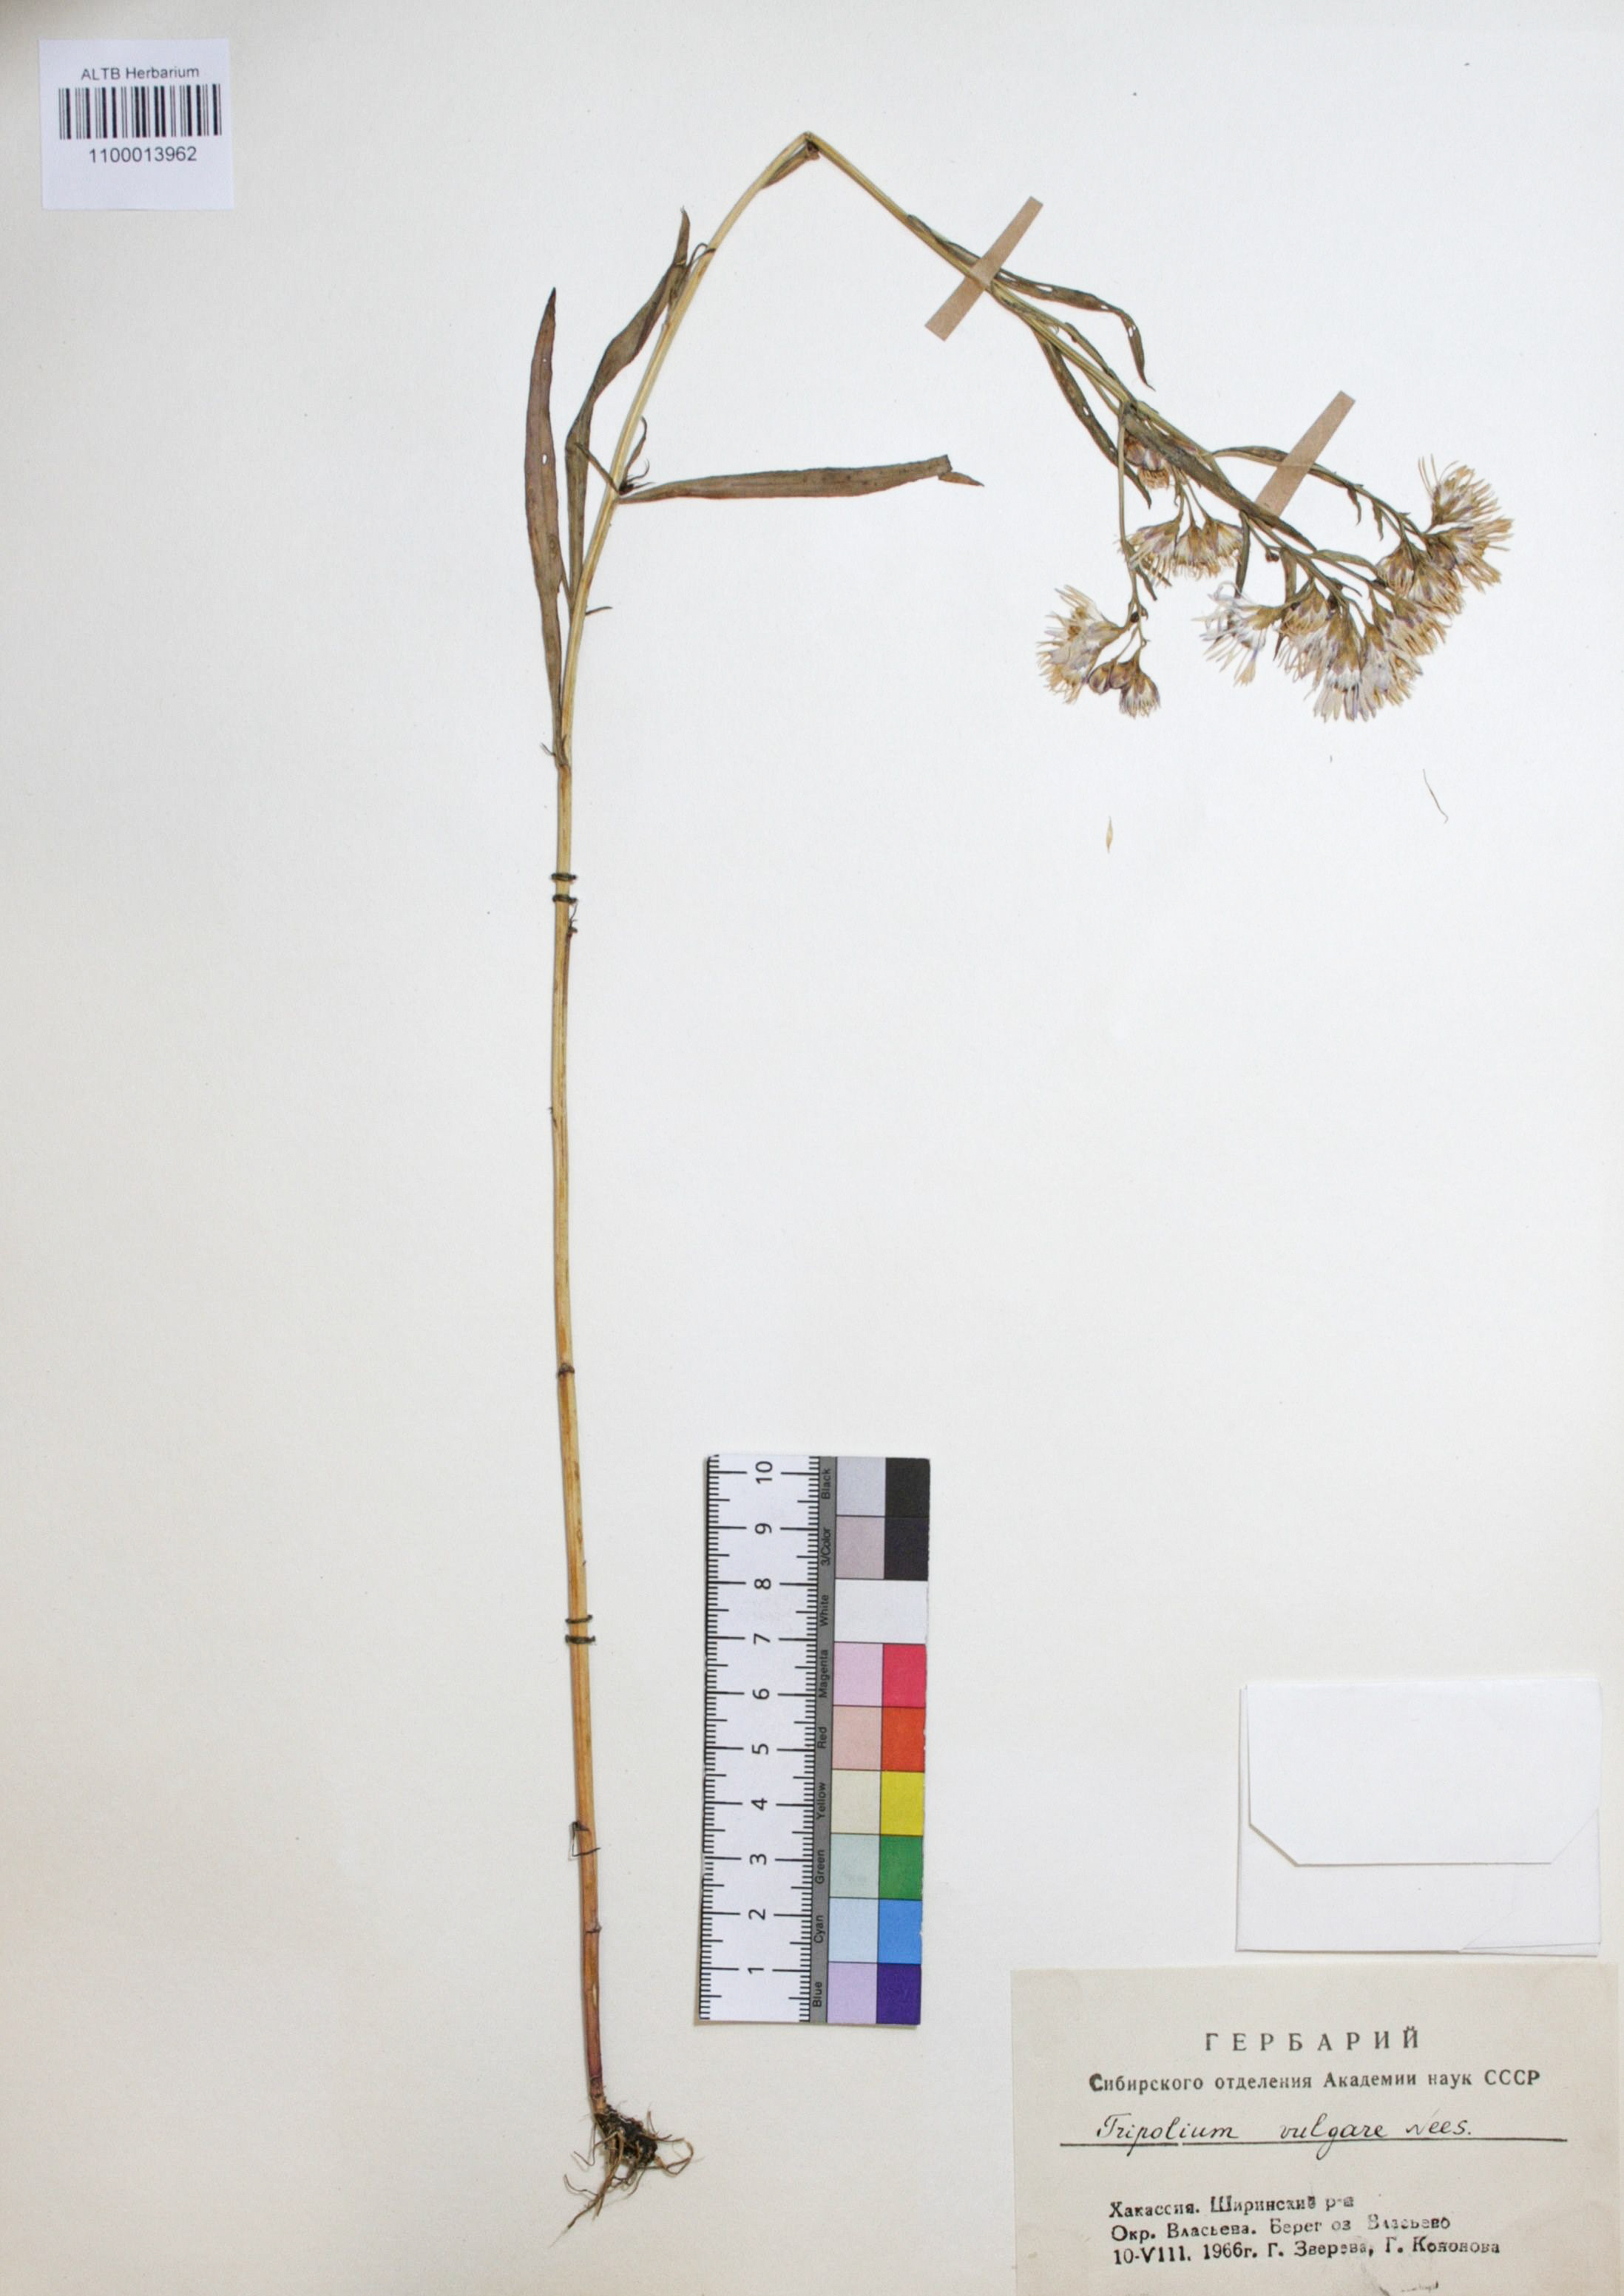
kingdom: Plantae
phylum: Tracheophyta
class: Magnoliopsida
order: Asterales
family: Asteraceae
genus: Tripolium
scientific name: Tripolium pannonicum
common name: Sea aster
